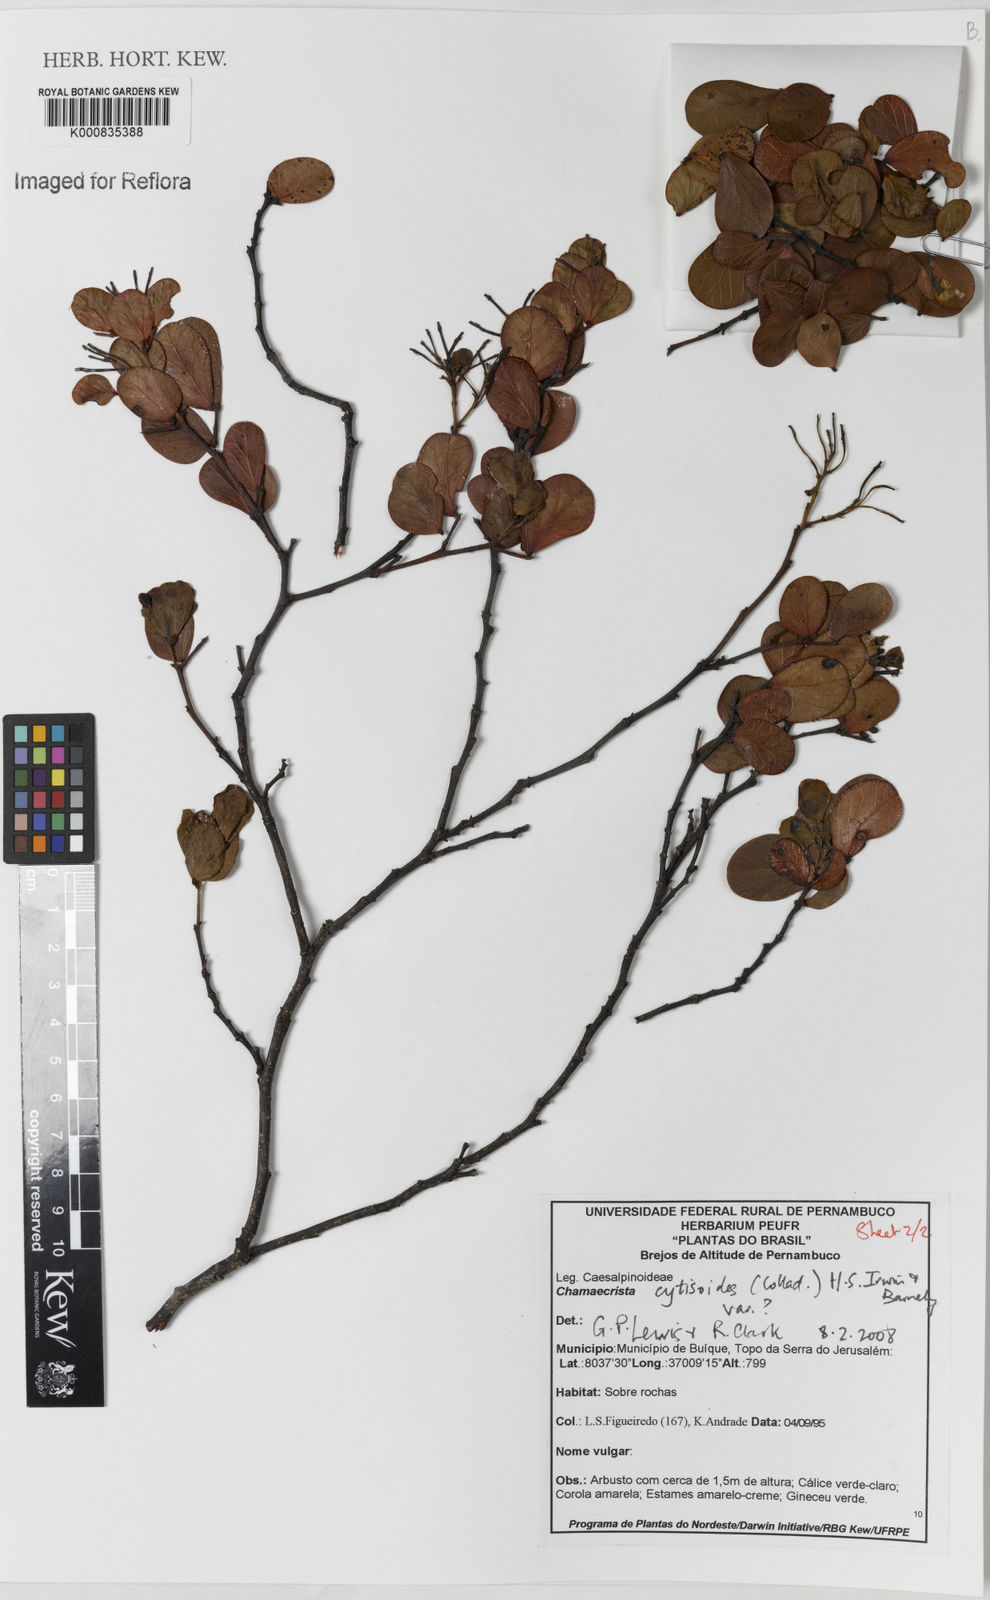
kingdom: Plantae
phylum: Tracheophyta
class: Magnoliopsida
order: Fabales
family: Fabaceae
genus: Chamaecrista
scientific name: Chamaecrista brachystachya
